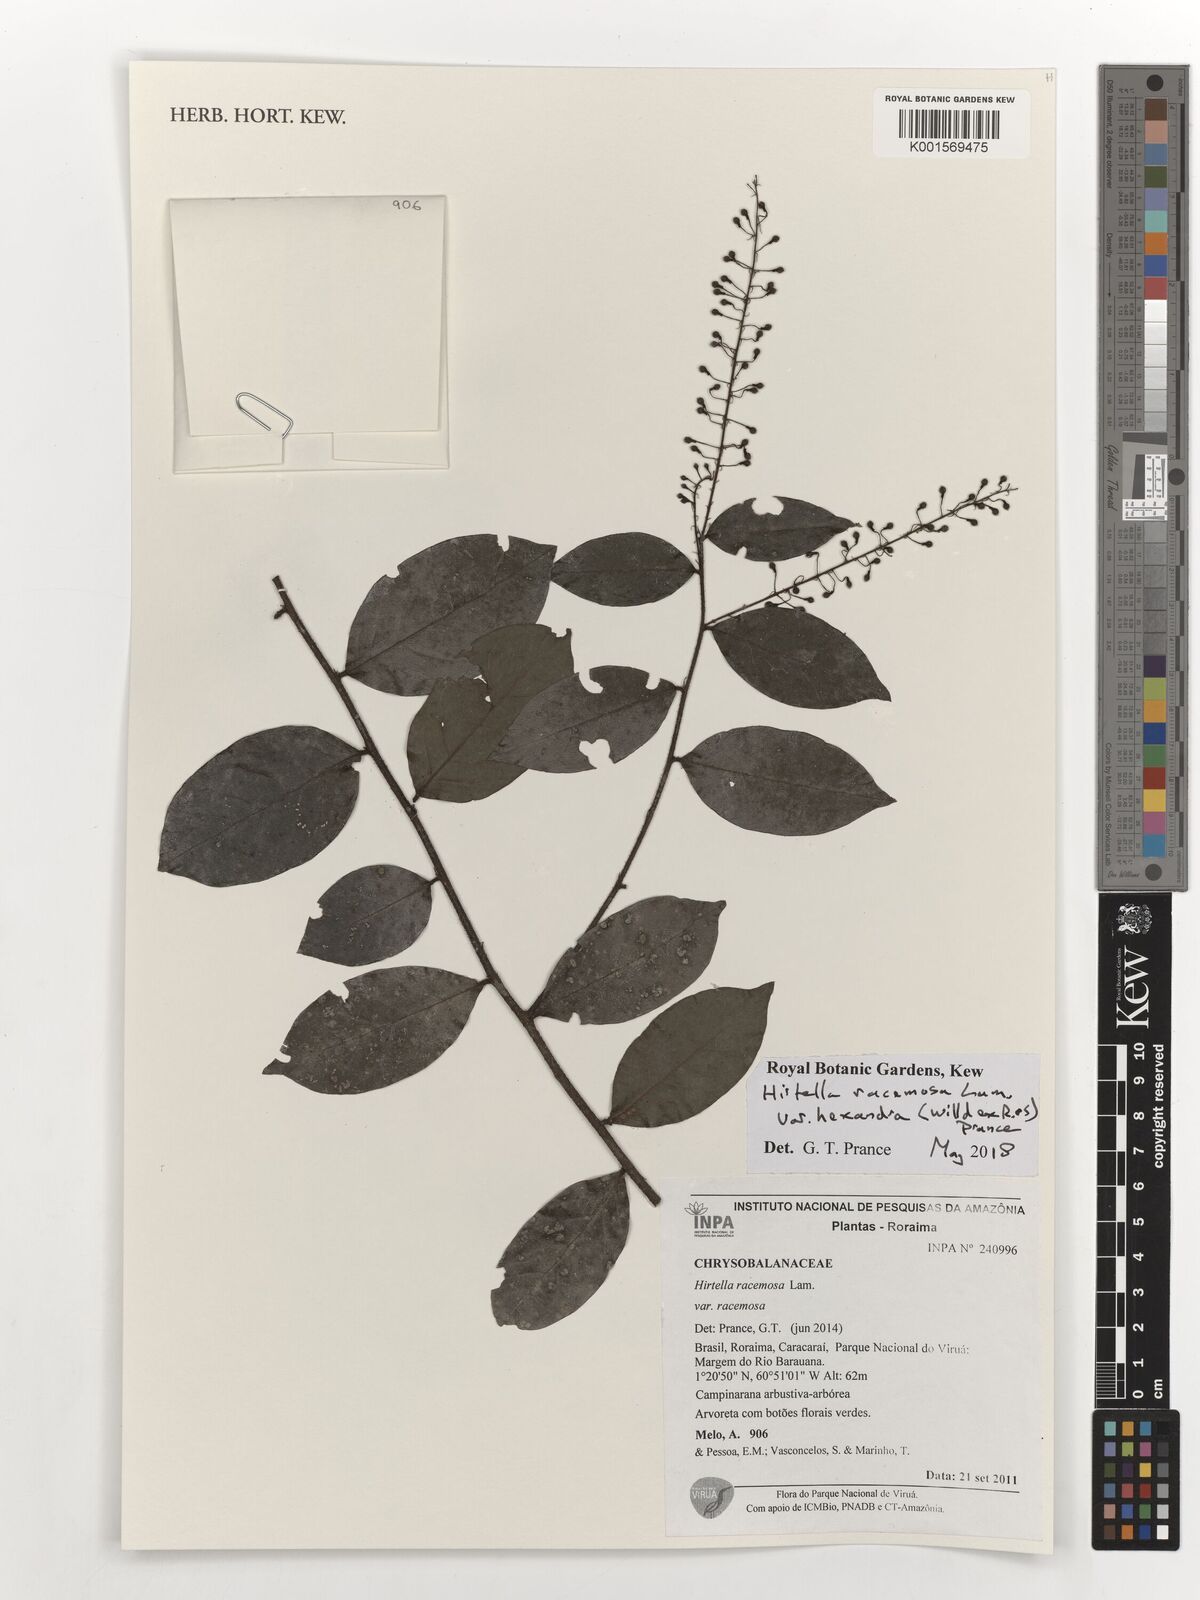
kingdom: Plantae
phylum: Tracheophyta
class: Magnoliopsida
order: Malpighiales
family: Chrysobalanaceae
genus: Hirtella
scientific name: Hirtella racemosa
